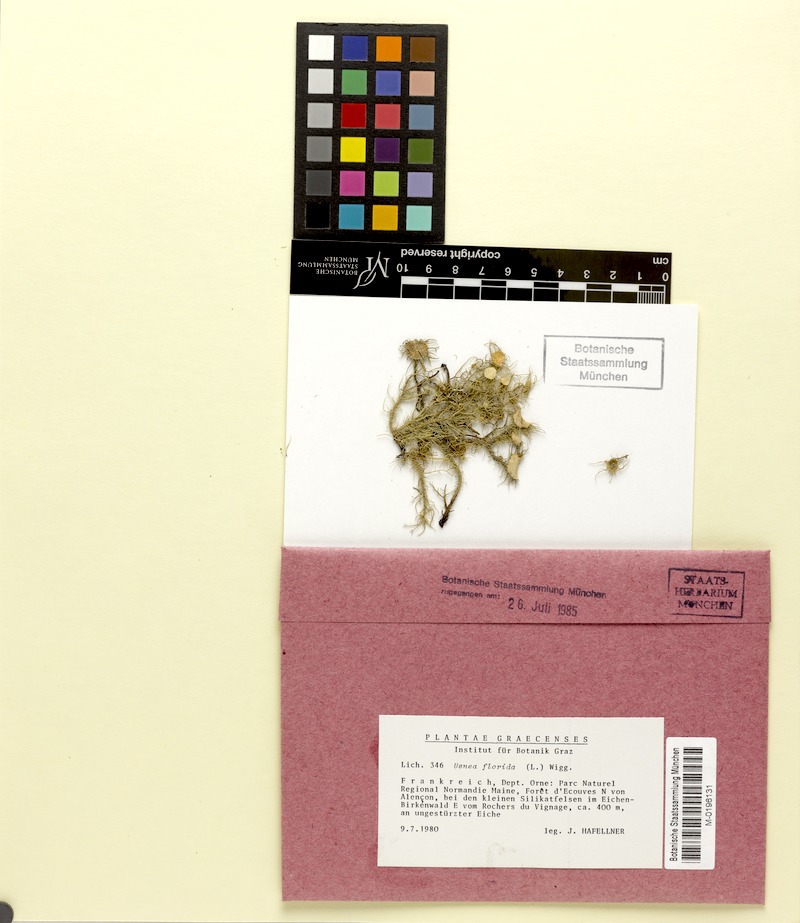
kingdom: Fungi
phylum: Ascomycota
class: Lecanoromycetes
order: Lecanorales
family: Parmeliaceae
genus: Usnea
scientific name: Usnea florida
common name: Witches' whiskers lichen
